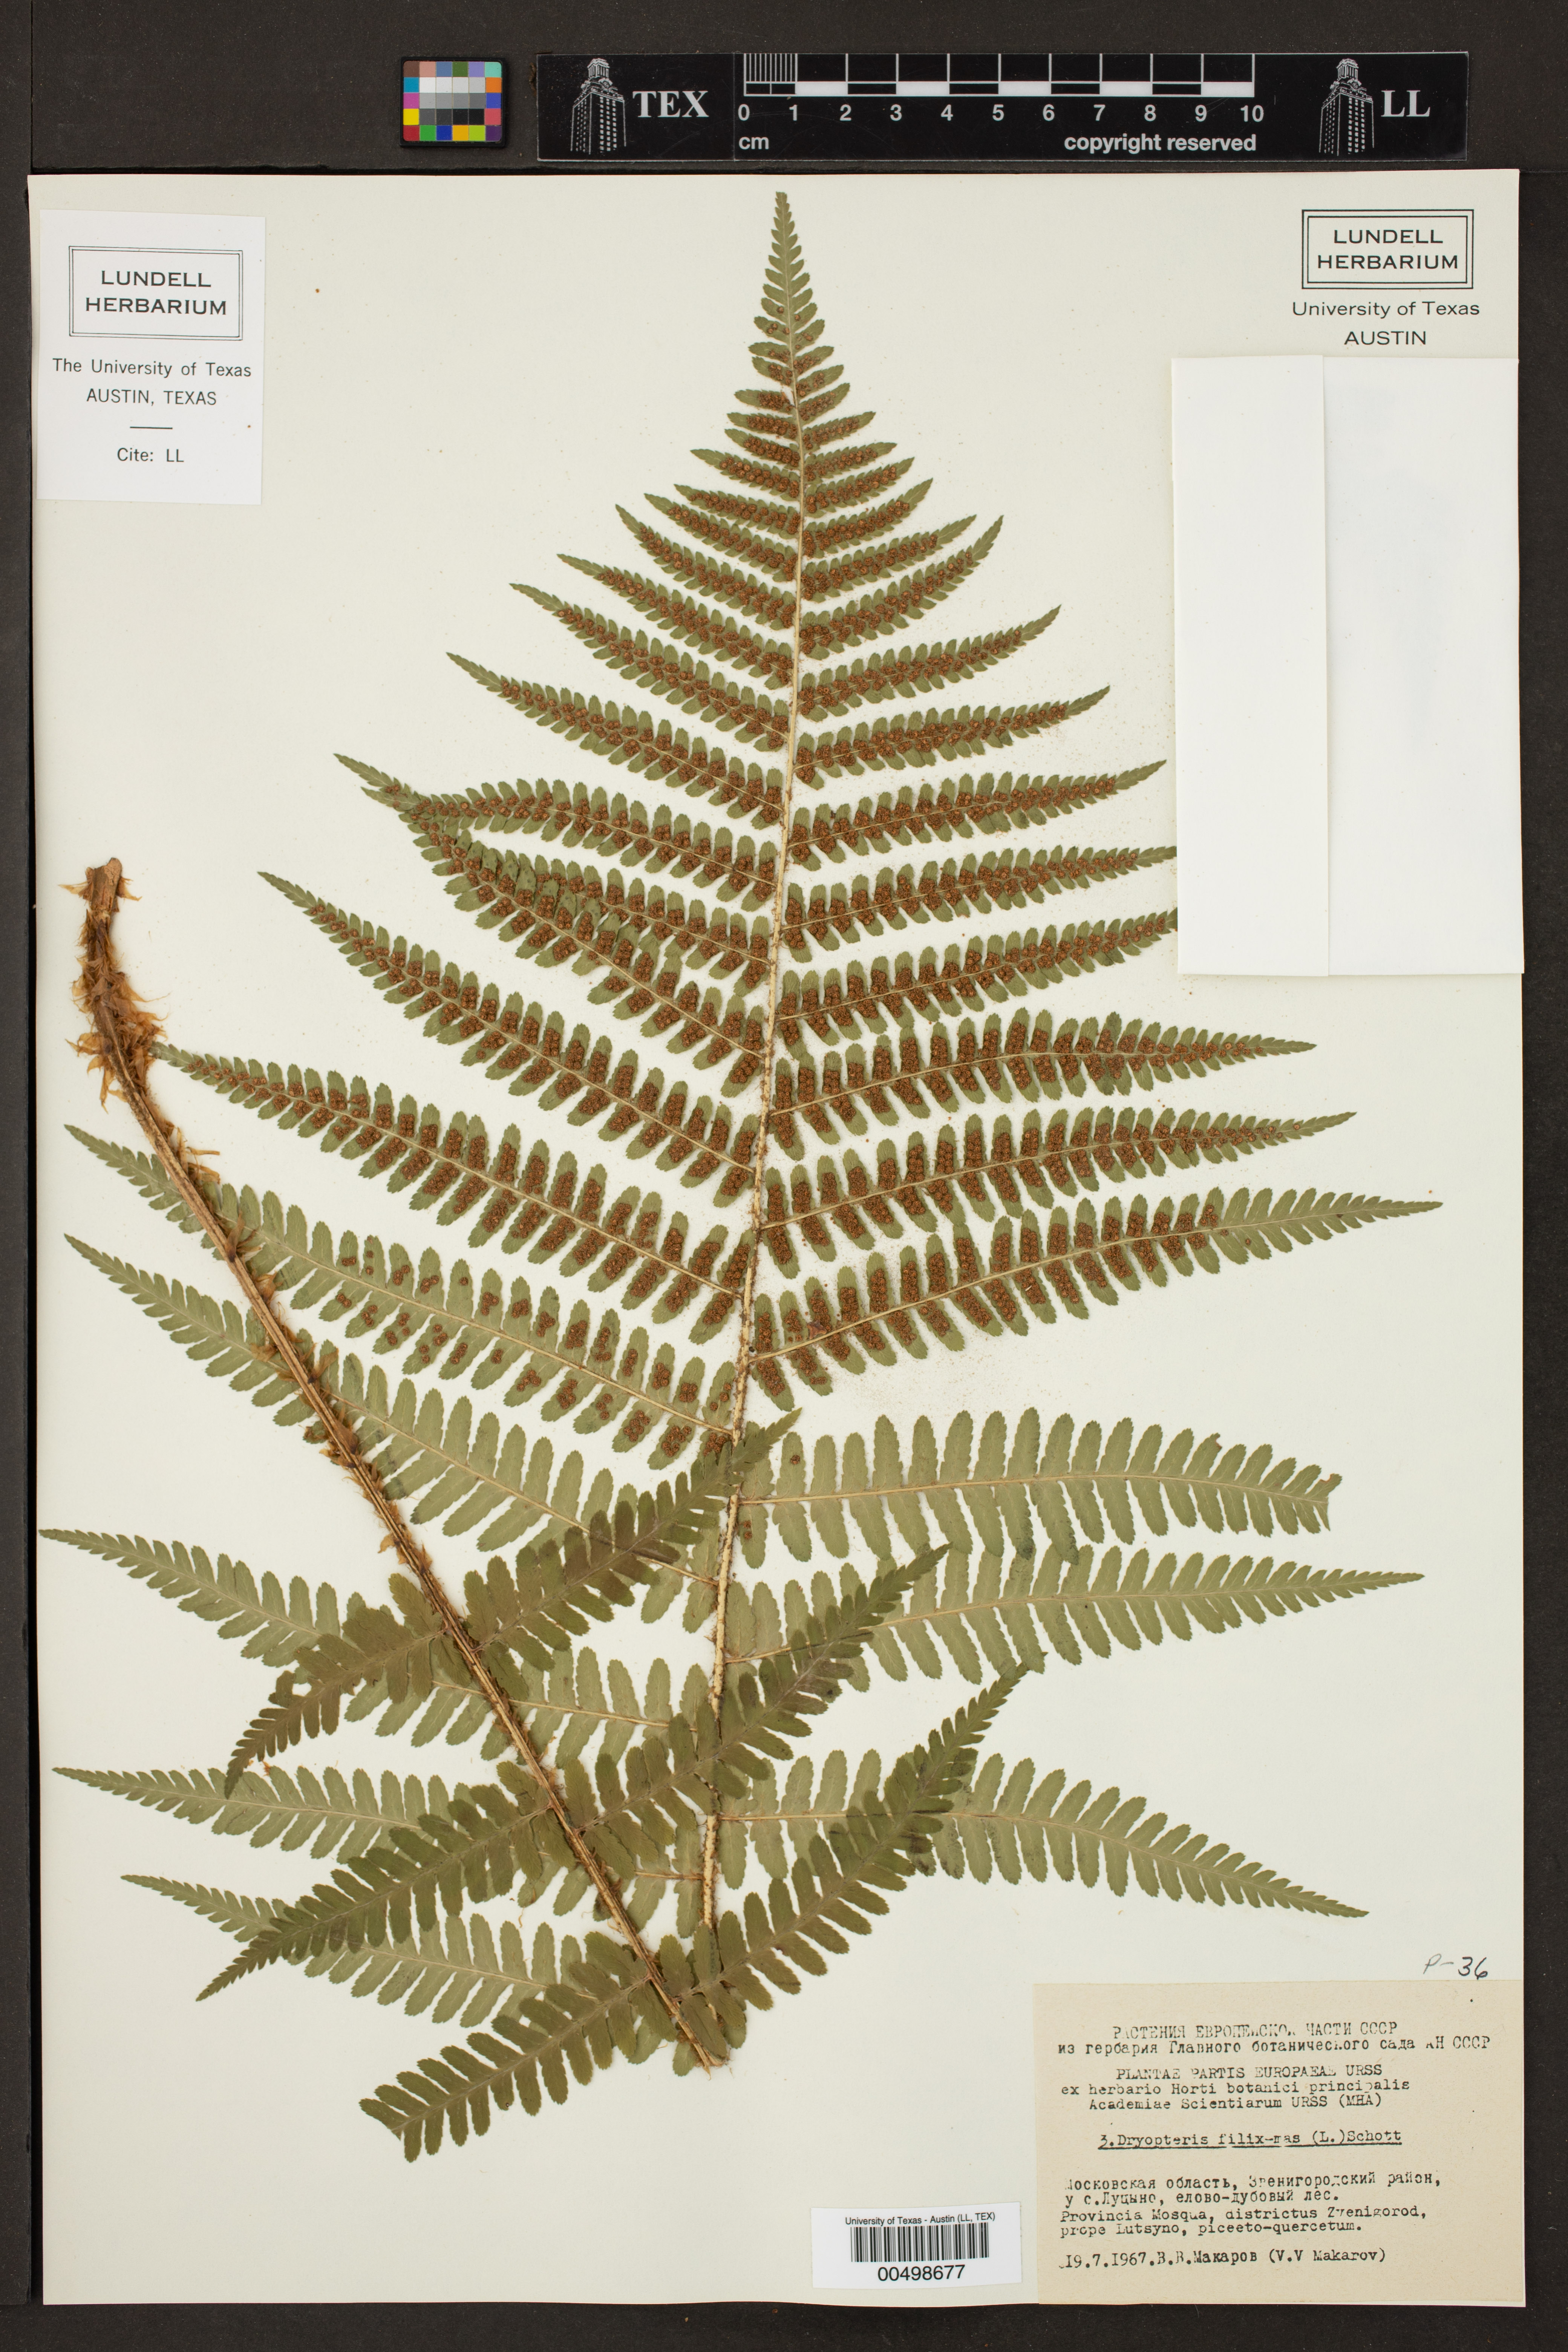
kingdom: Plantae
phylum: Tracheophyta
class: Polypodiopsida
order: Polypodiales
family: Dryopteridaceae
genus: Dryopteris
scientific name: Dryopteris filix-mas
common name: Male fern
